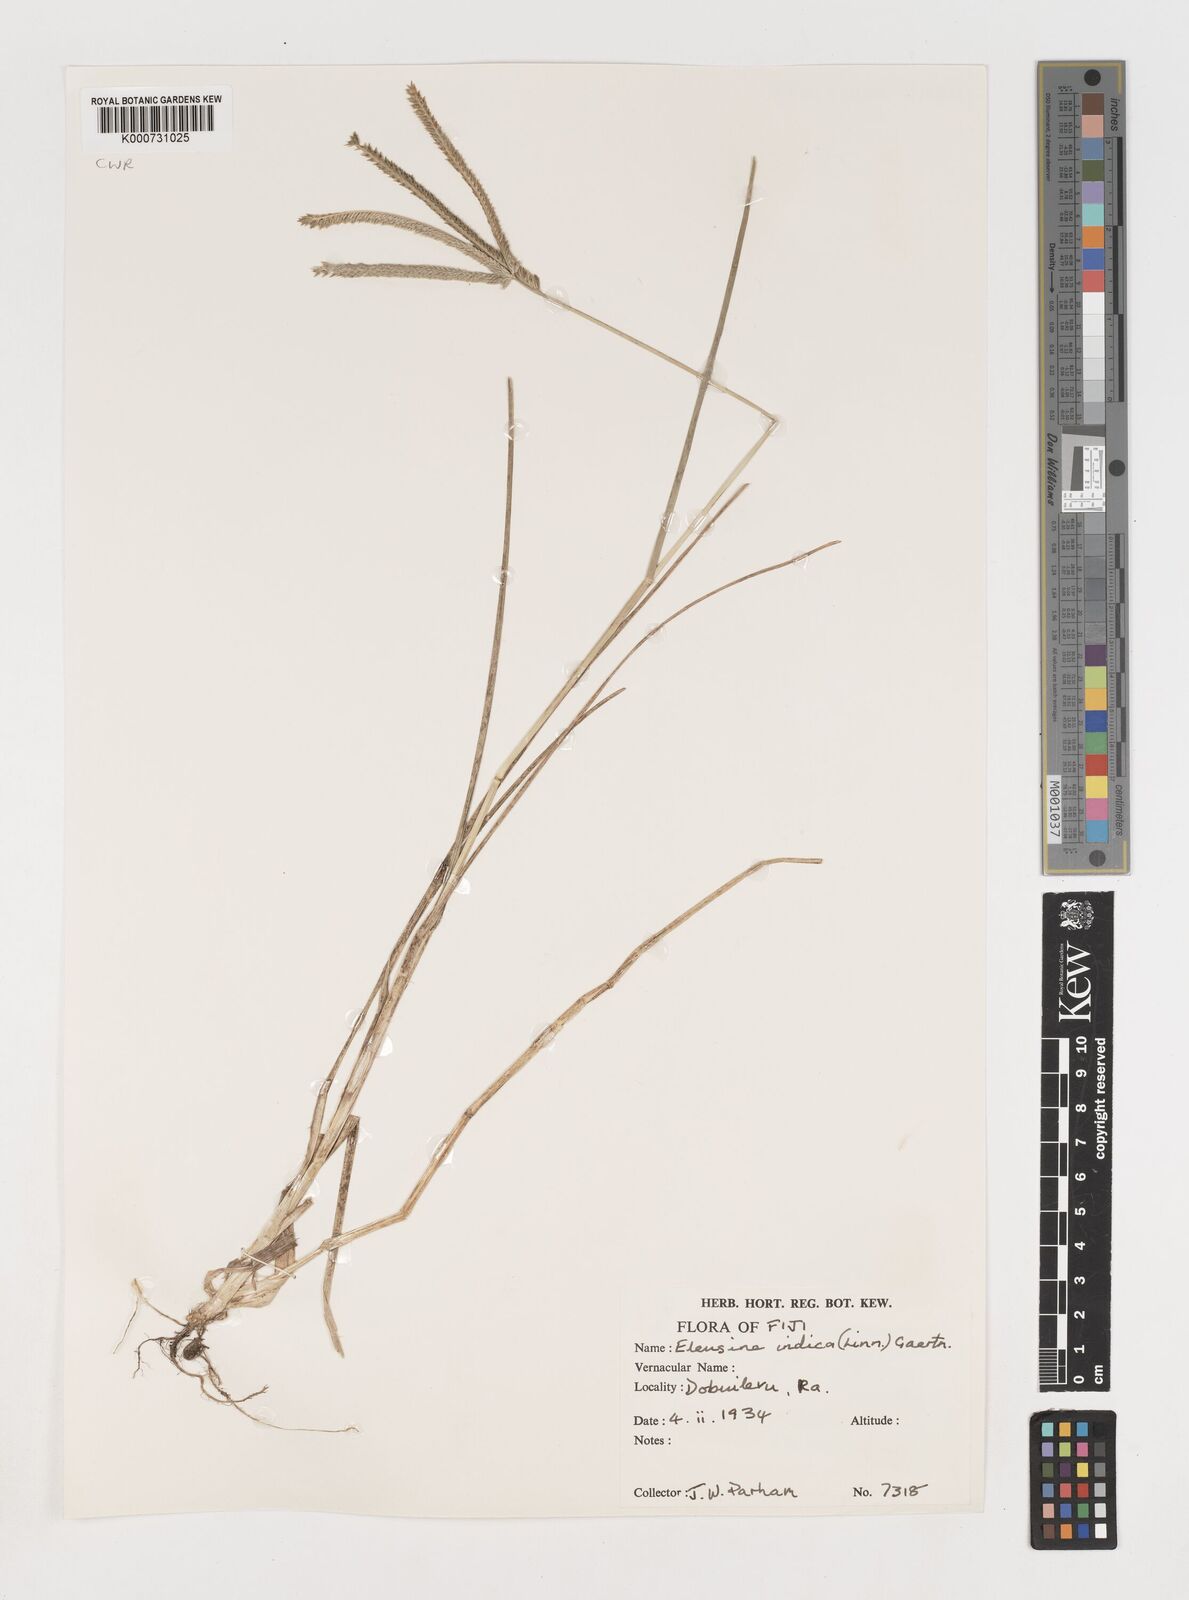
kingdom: Plantae
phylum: Tracheophyta
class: Liliopsida
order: Poales
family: Poaceae
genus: Eleusine
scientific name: Eleusine indica
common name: Yard-grass
